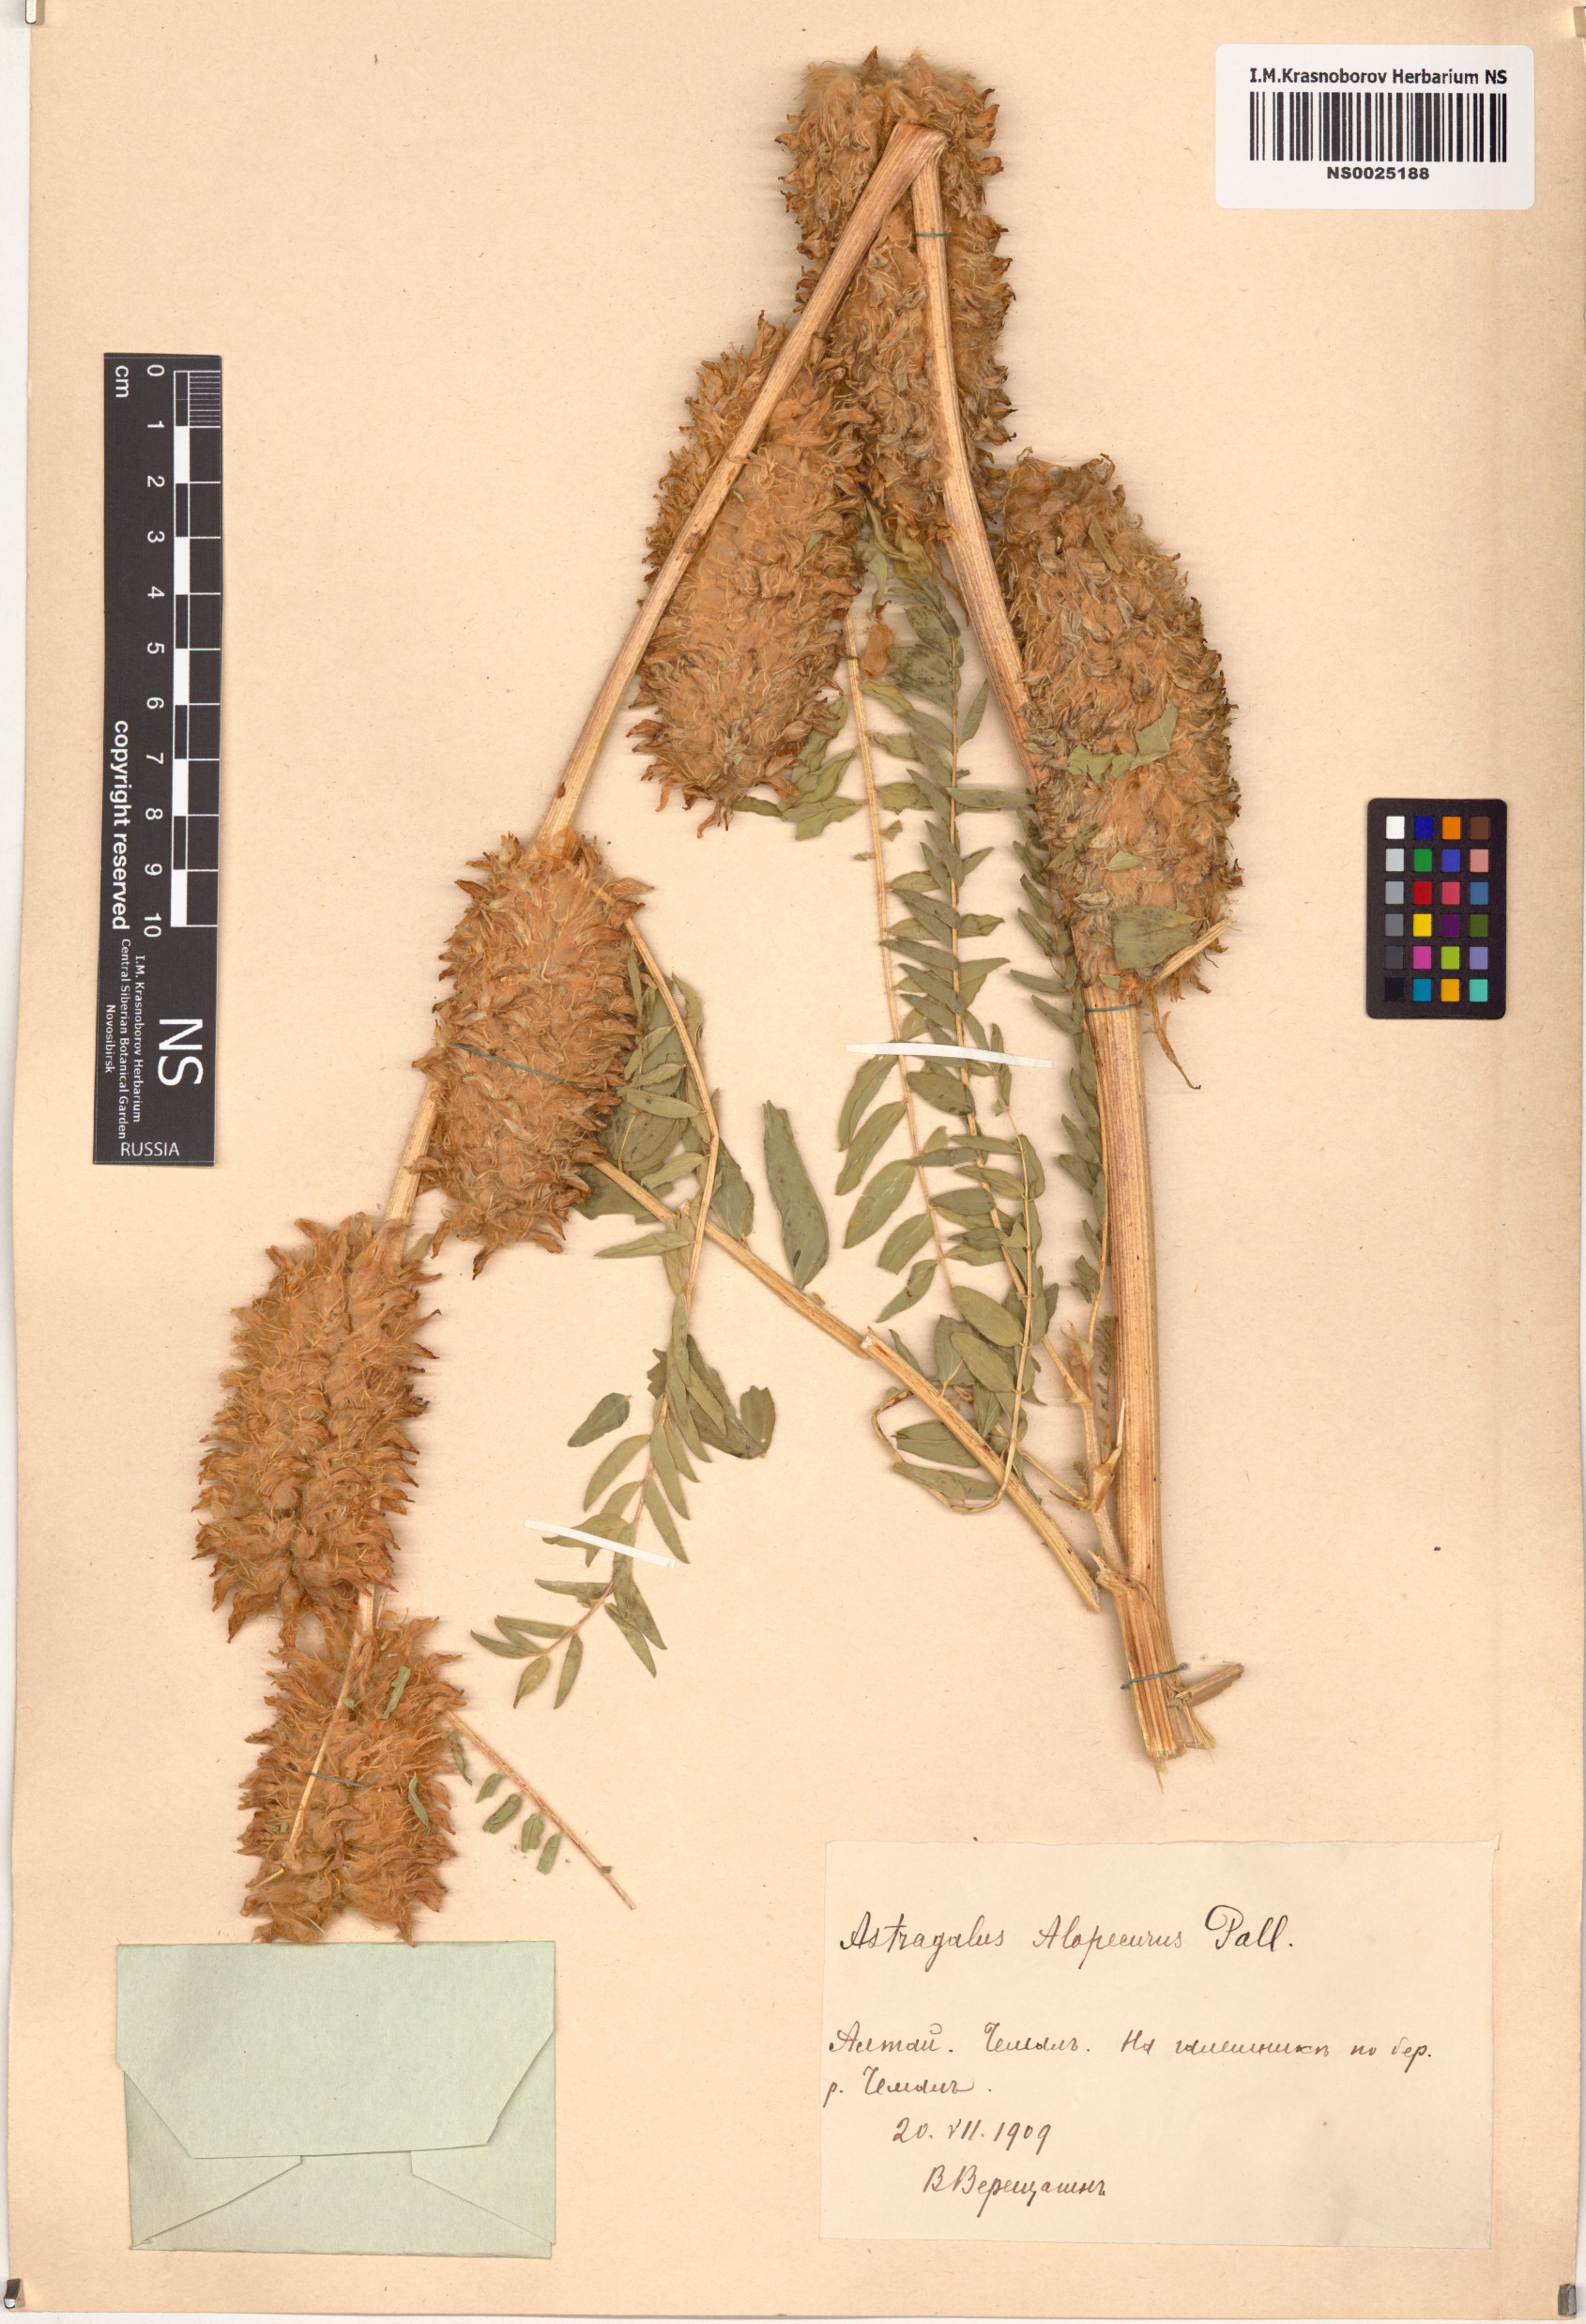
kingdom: Plantae
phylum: Tracheophyta
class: Magnoliopsida
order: Fabales
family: Fabaceae
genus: Astragalus
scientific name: Astragalus alopecurus
